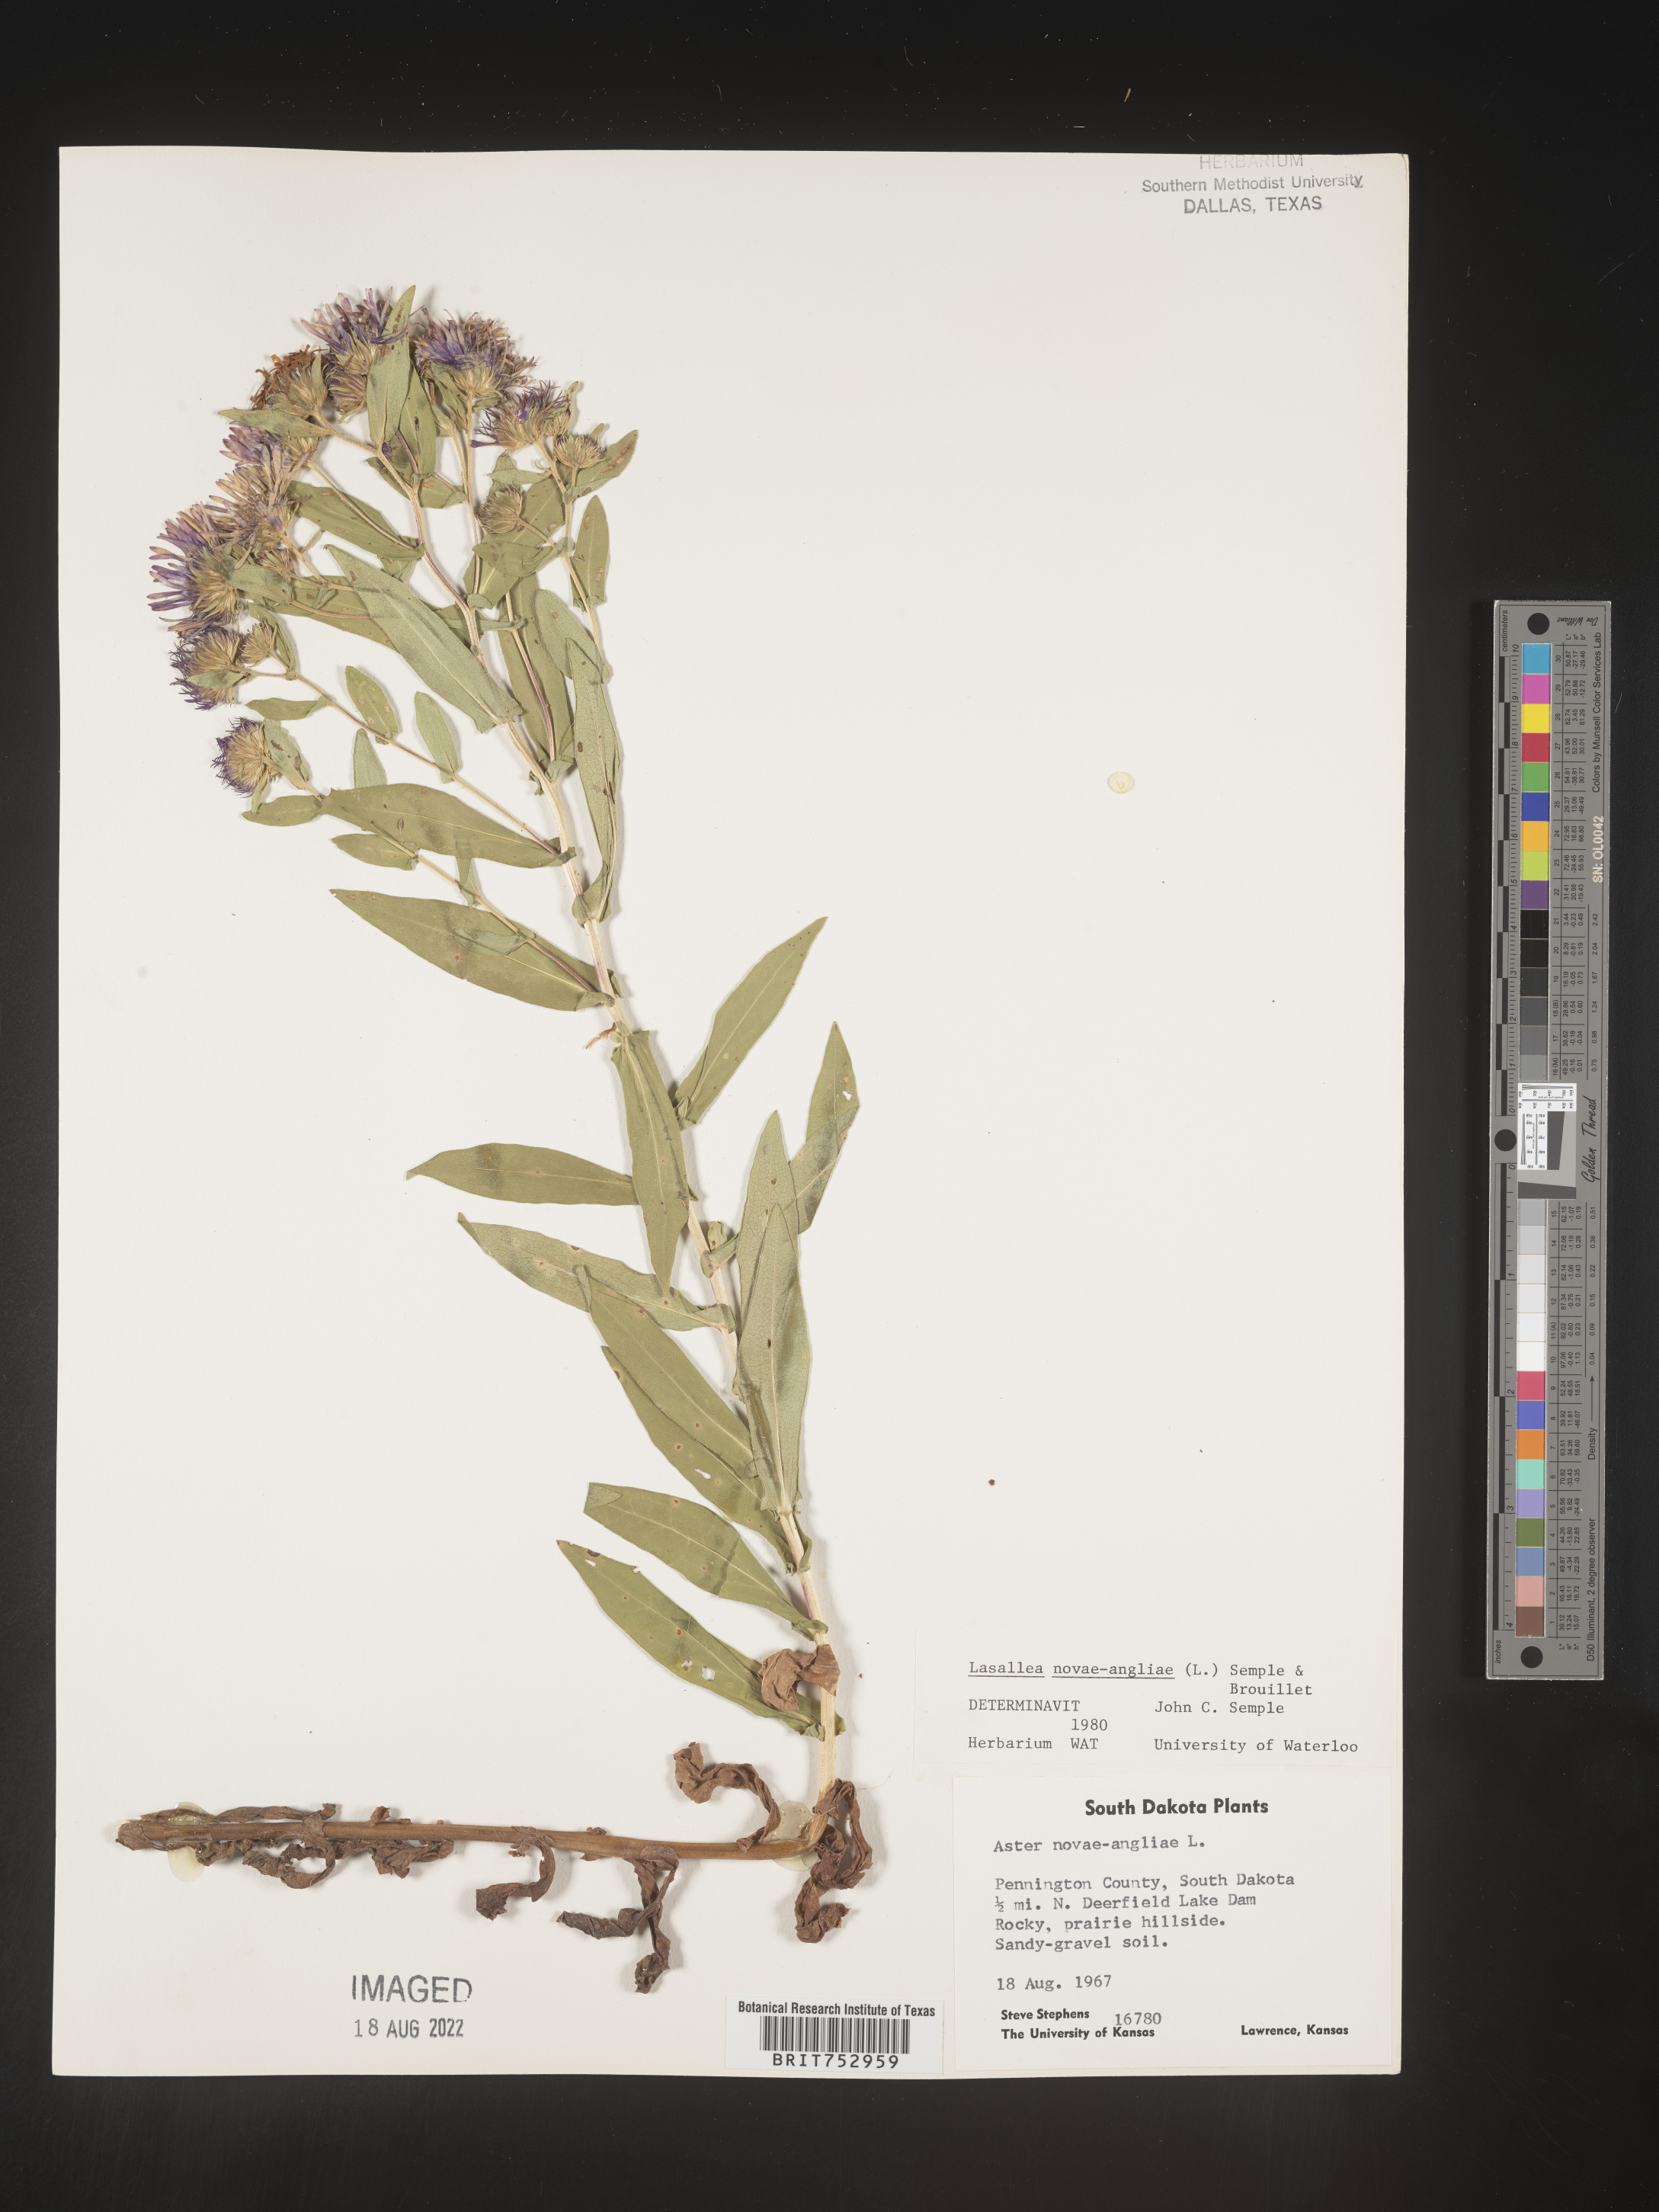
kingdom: Plantae
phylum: Tracheophyta
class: Magnoliopsida
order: Asterales
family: Asteraceae
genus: Symphyotrichum
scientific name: Symphyotrichum novae-angliae
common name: Michaelmas daisy
